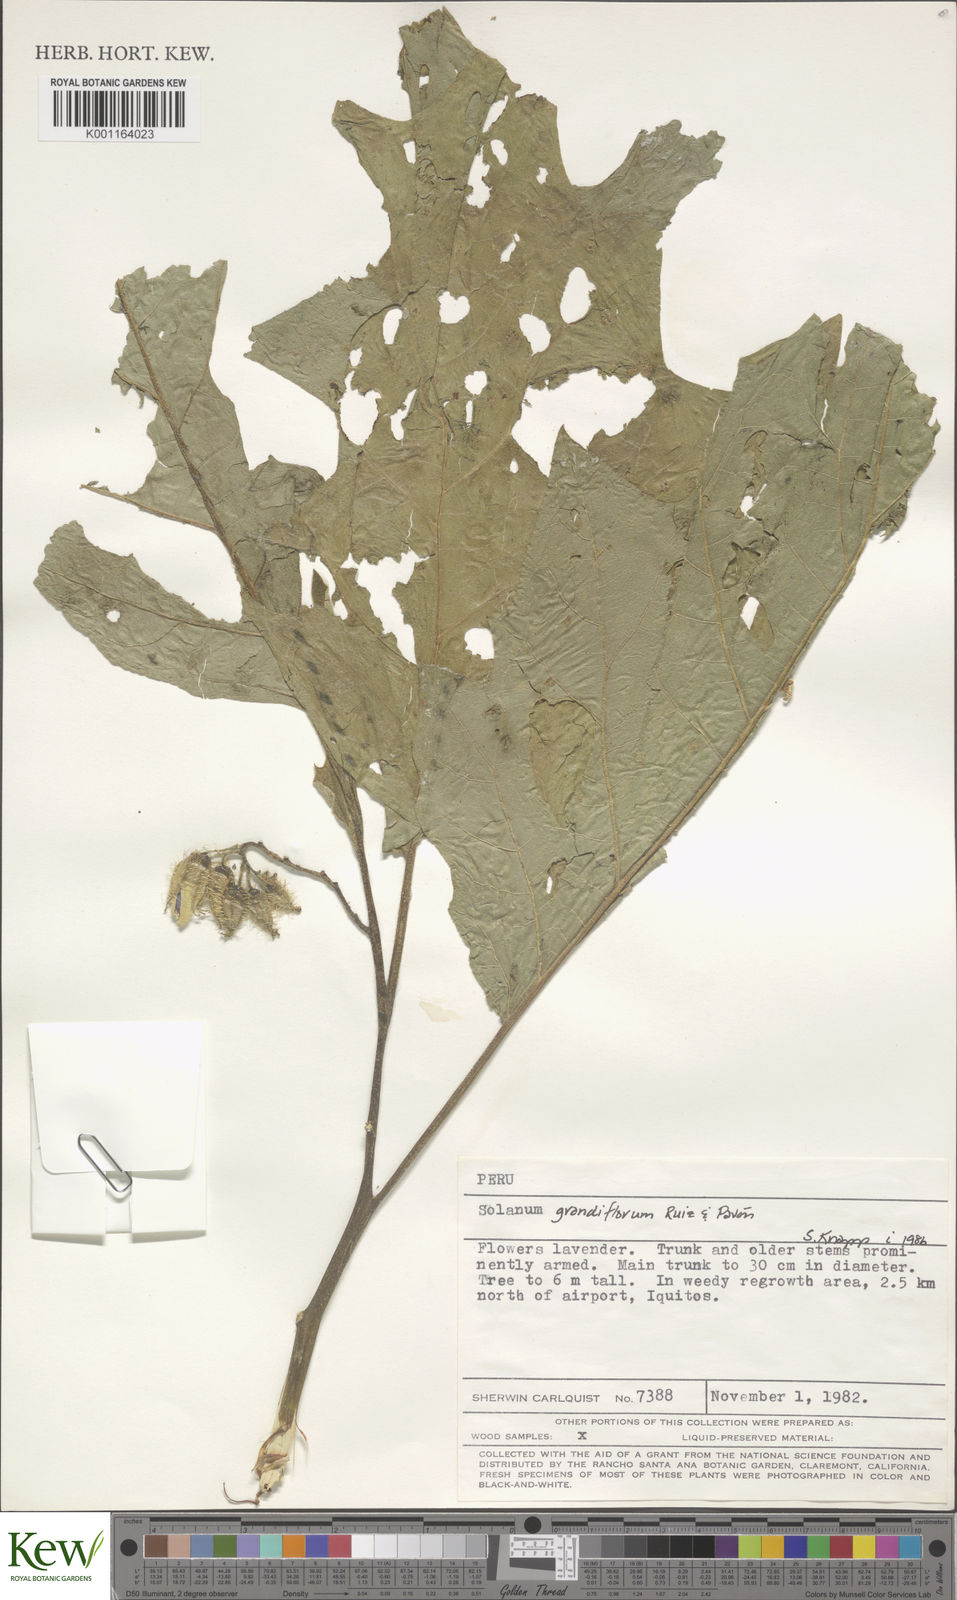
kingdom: Plantae
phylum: Tracheophyta
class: Magnoliopsida
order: Solanales
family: Solanaceae
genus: Solanum
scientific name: Solanum grandiflorum
